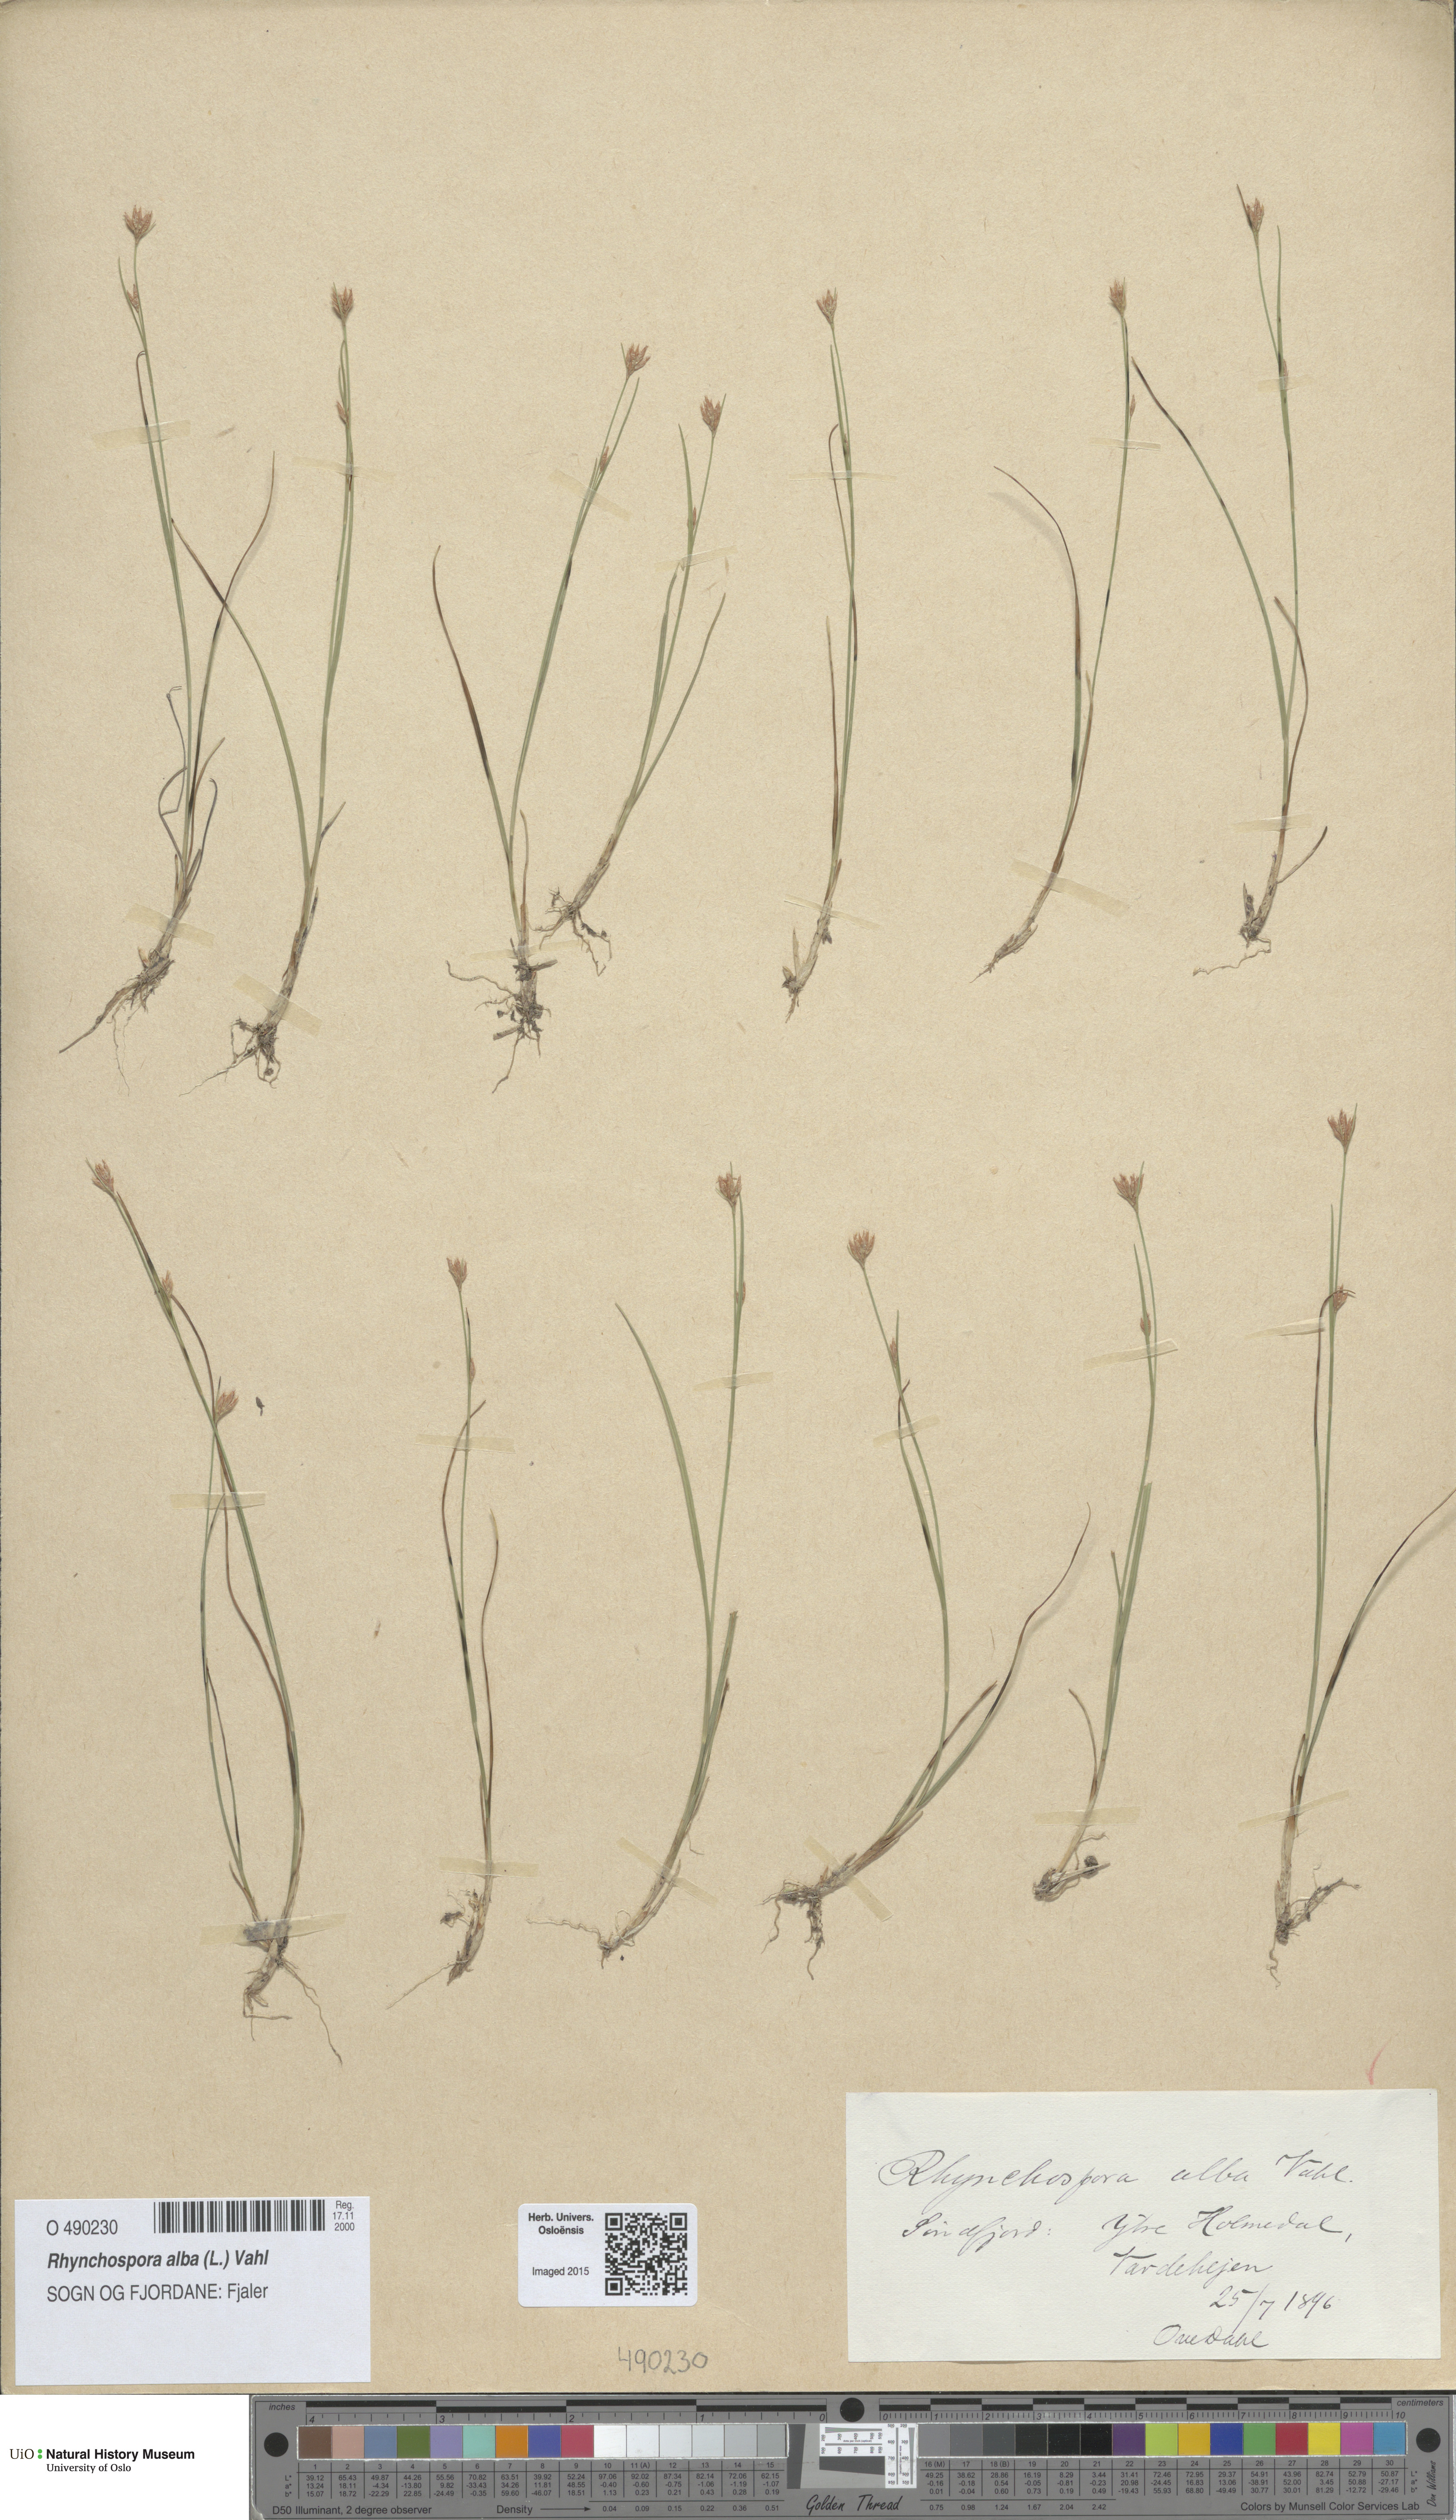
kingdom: Plantae
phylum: Tracheophyta
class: Liliopsida
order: Poales
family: Cyperaceae
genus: Rhynchospora
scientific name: Rhynchospora alba
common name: White beak-sedge
